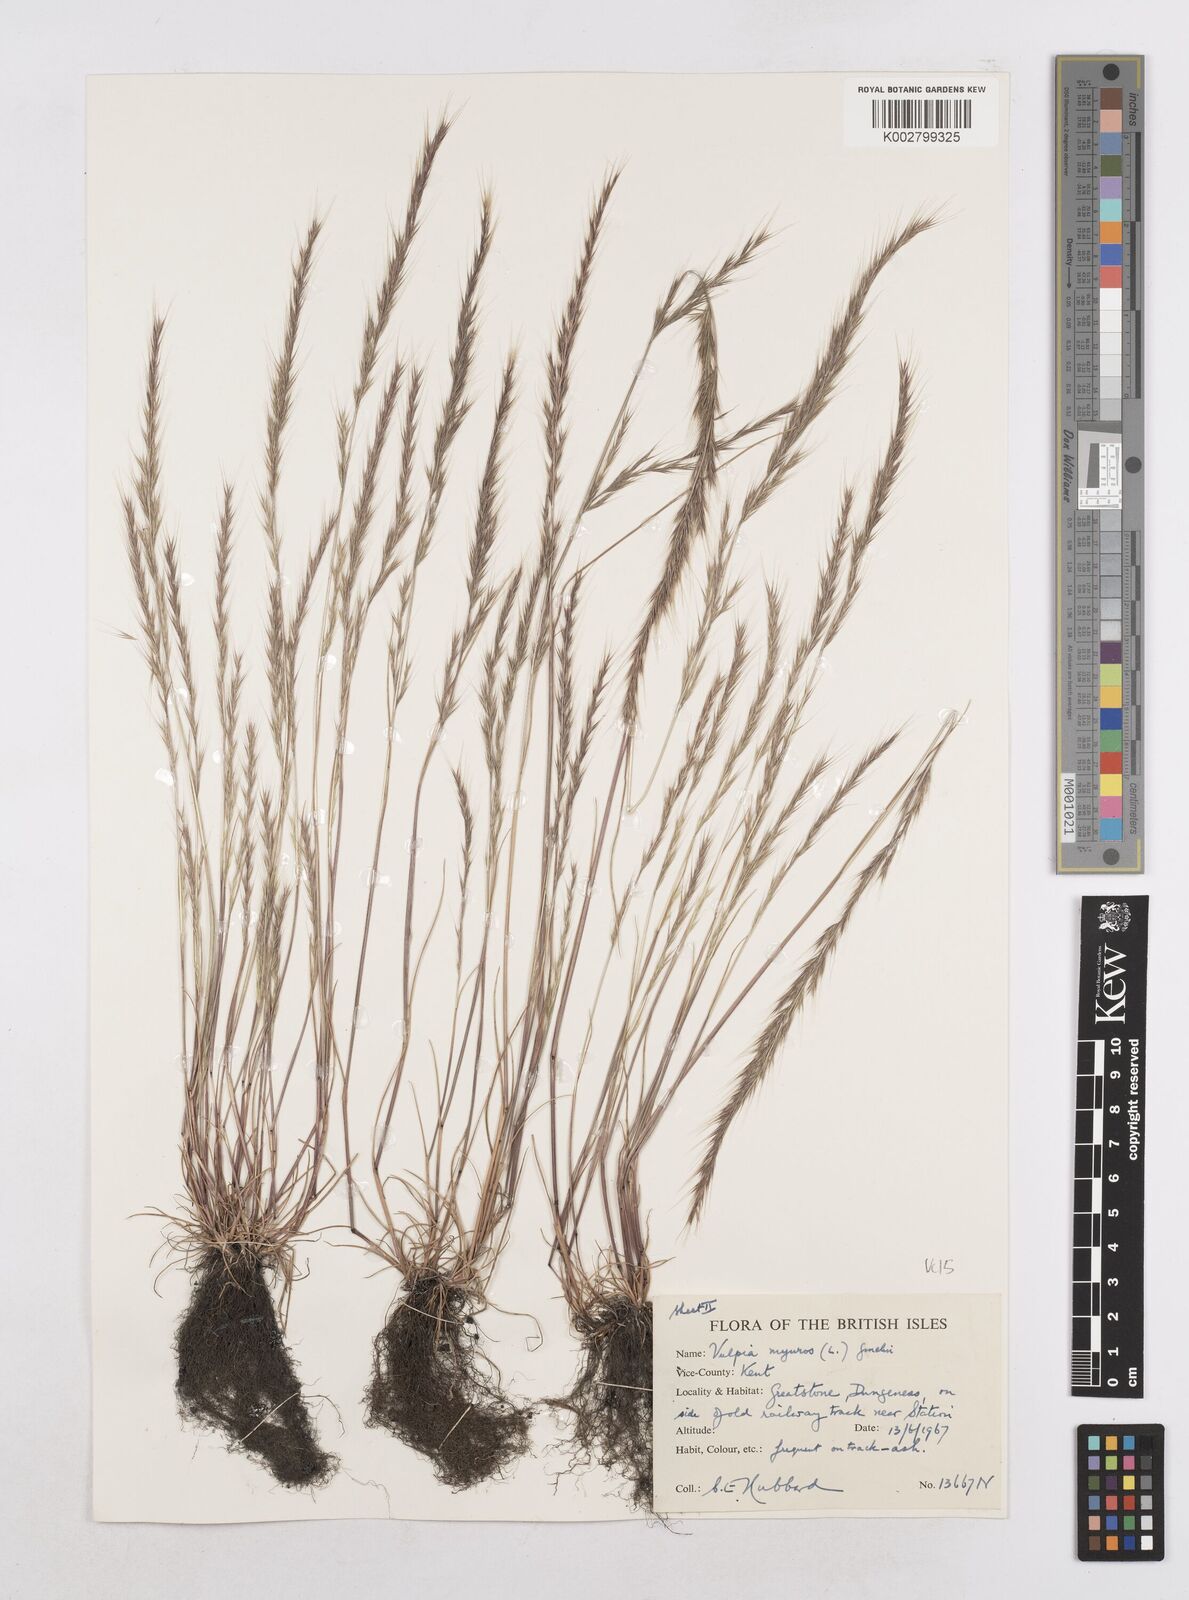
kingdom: Plantae
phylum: Tracheophyta
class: Liliopsida
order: Poales
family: Poaceae
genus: Festuca
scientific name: Festuca myuros
